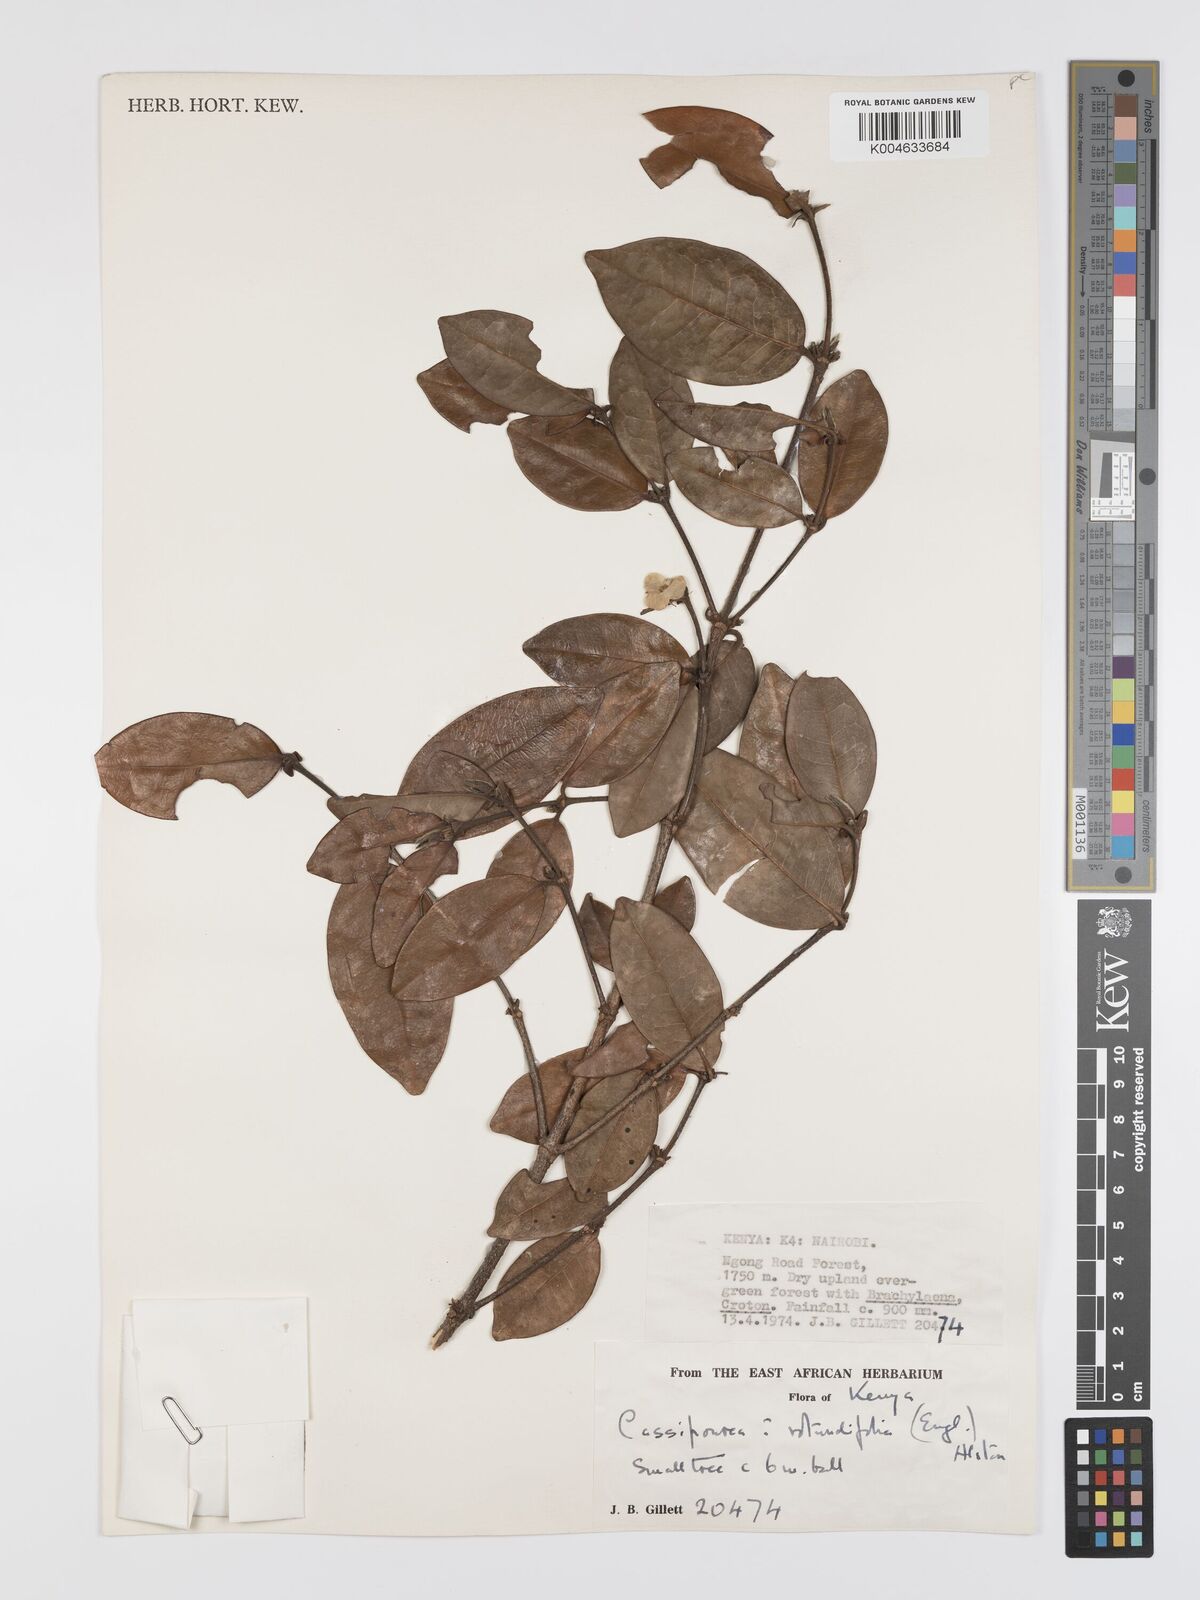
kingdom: Plantae
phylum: Tracheophyta
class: Magnoliopsida
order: Malpighiales
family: Rhizophoraceae
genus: Cassipourea
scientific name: Cassipourea rotundifolia
